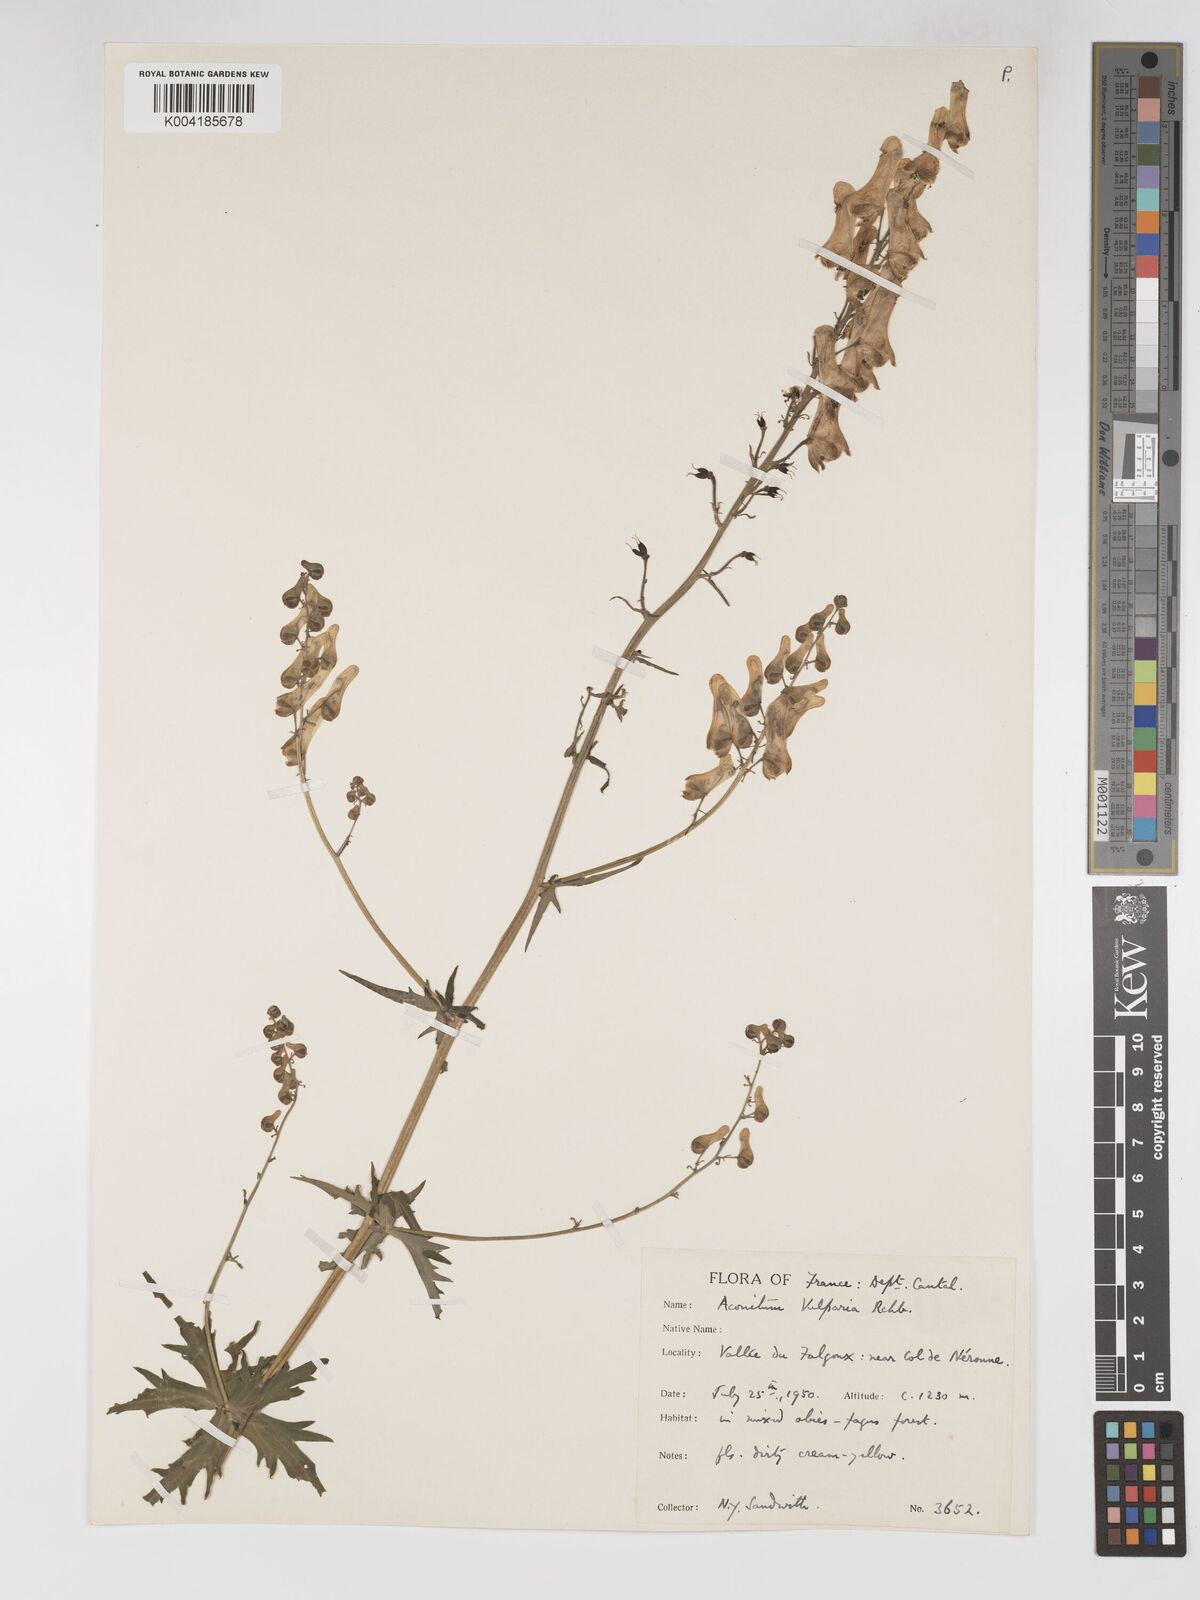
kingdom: Plantae
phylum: Tracheophyta
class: Magnoliopsida
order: Ranunculales
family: Ranunculaceae
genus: Aconitum
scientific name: Aconitum lycoctonum
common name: Wolf's-bane
